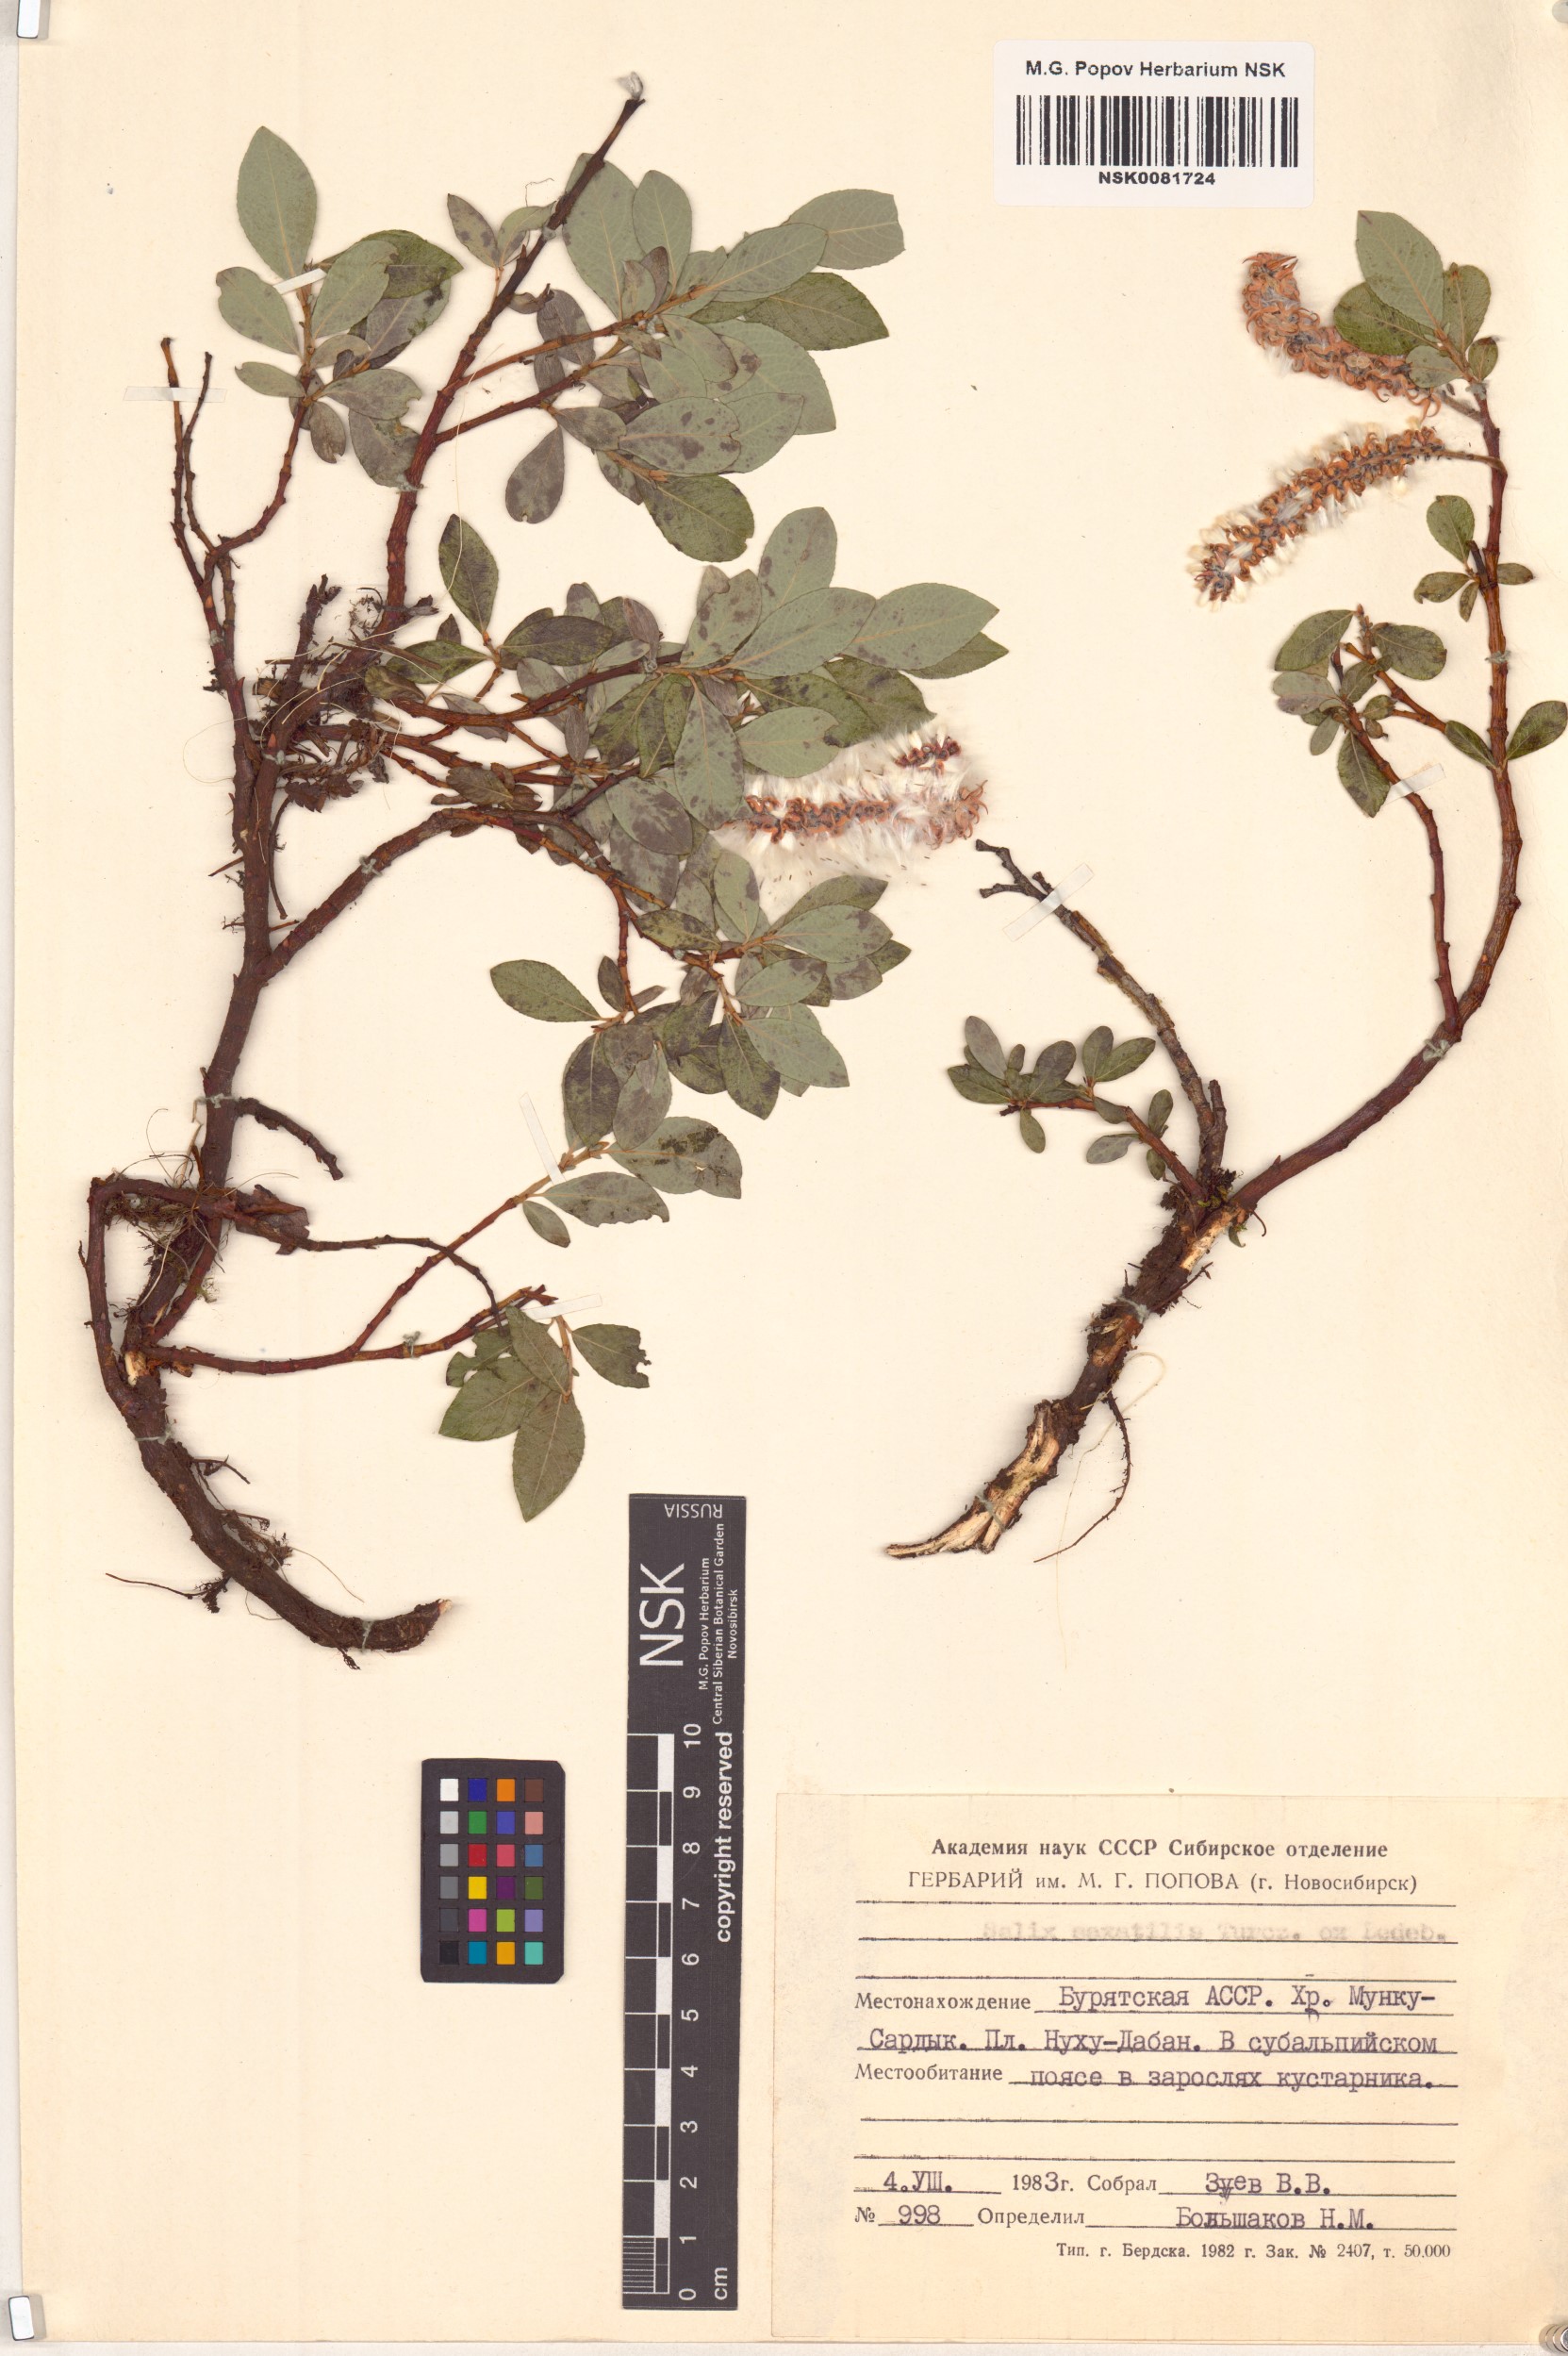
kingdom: Plantae
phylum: Tracheophyta
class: Magnoliopsida
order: Malpighiales
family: Salicaceae
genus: Salix
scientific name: Salix saxatilis
